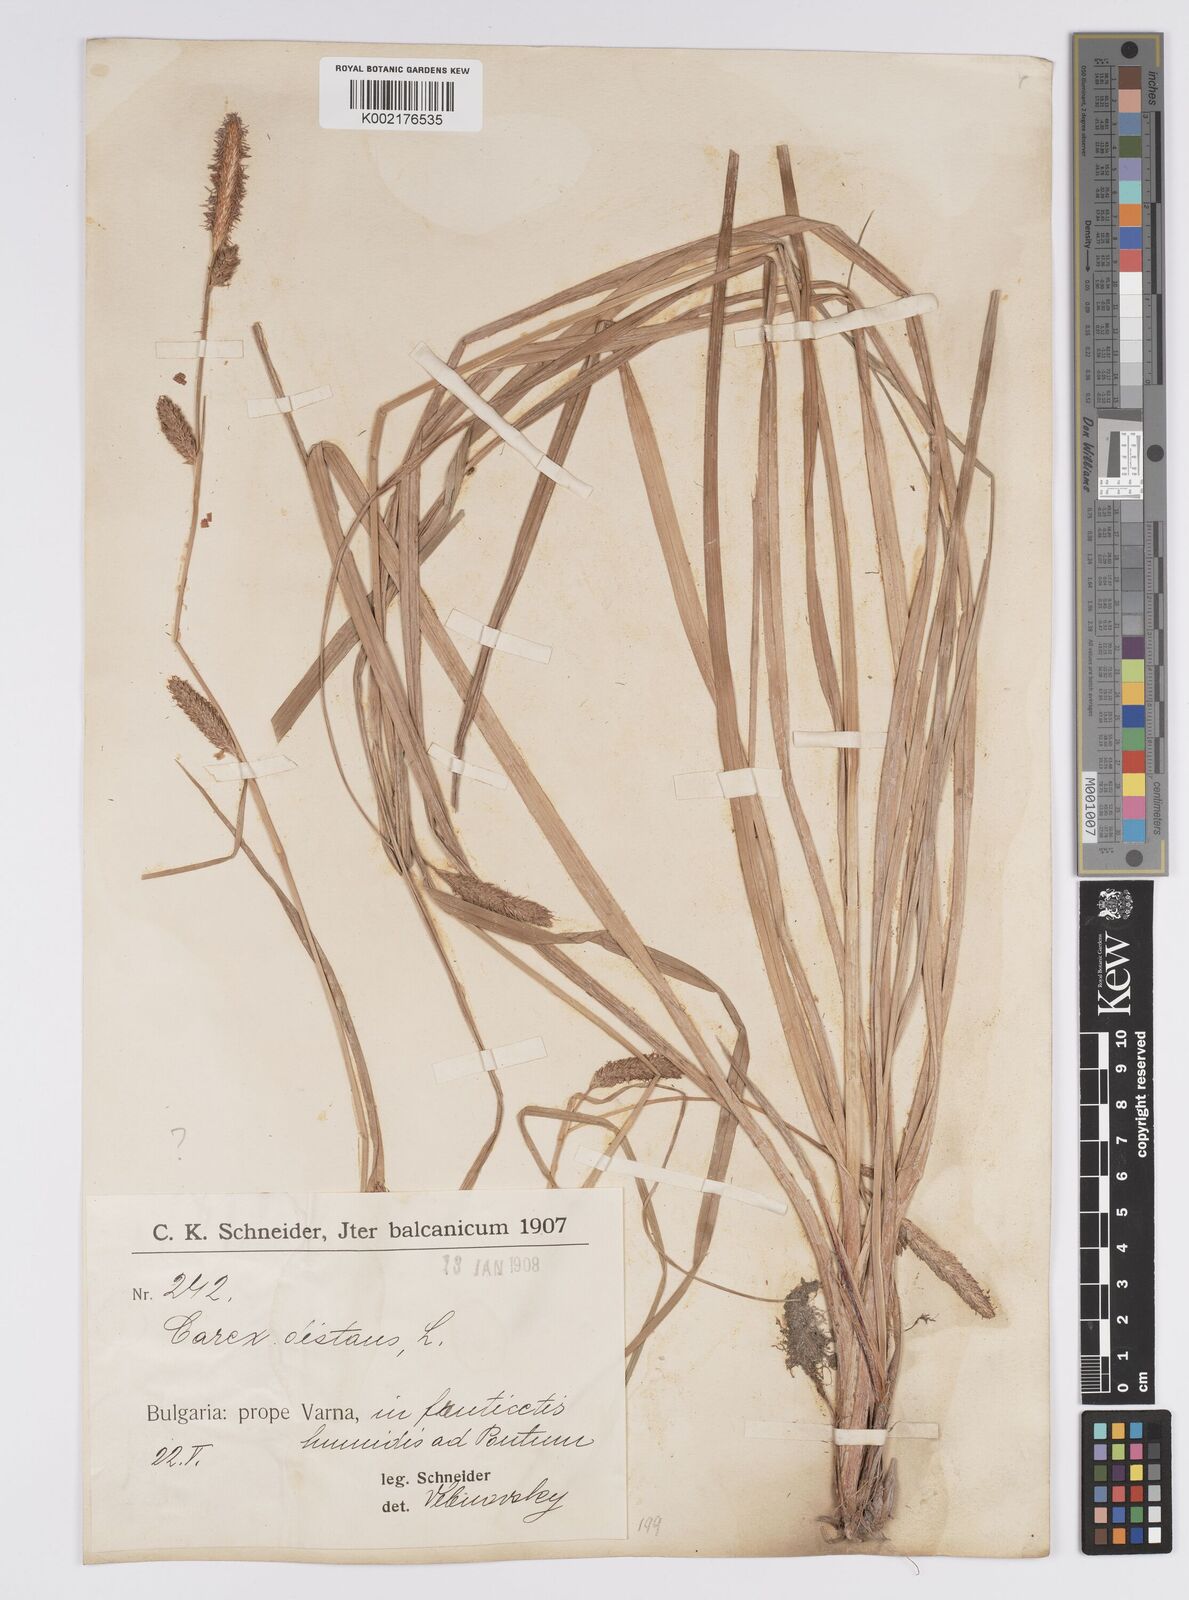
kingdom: Plantae
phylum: Tracheophyta
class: Liliopsida
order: Poales
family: Cyperaceae
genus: Carex
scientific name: Carex distans
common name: Distant sedge
